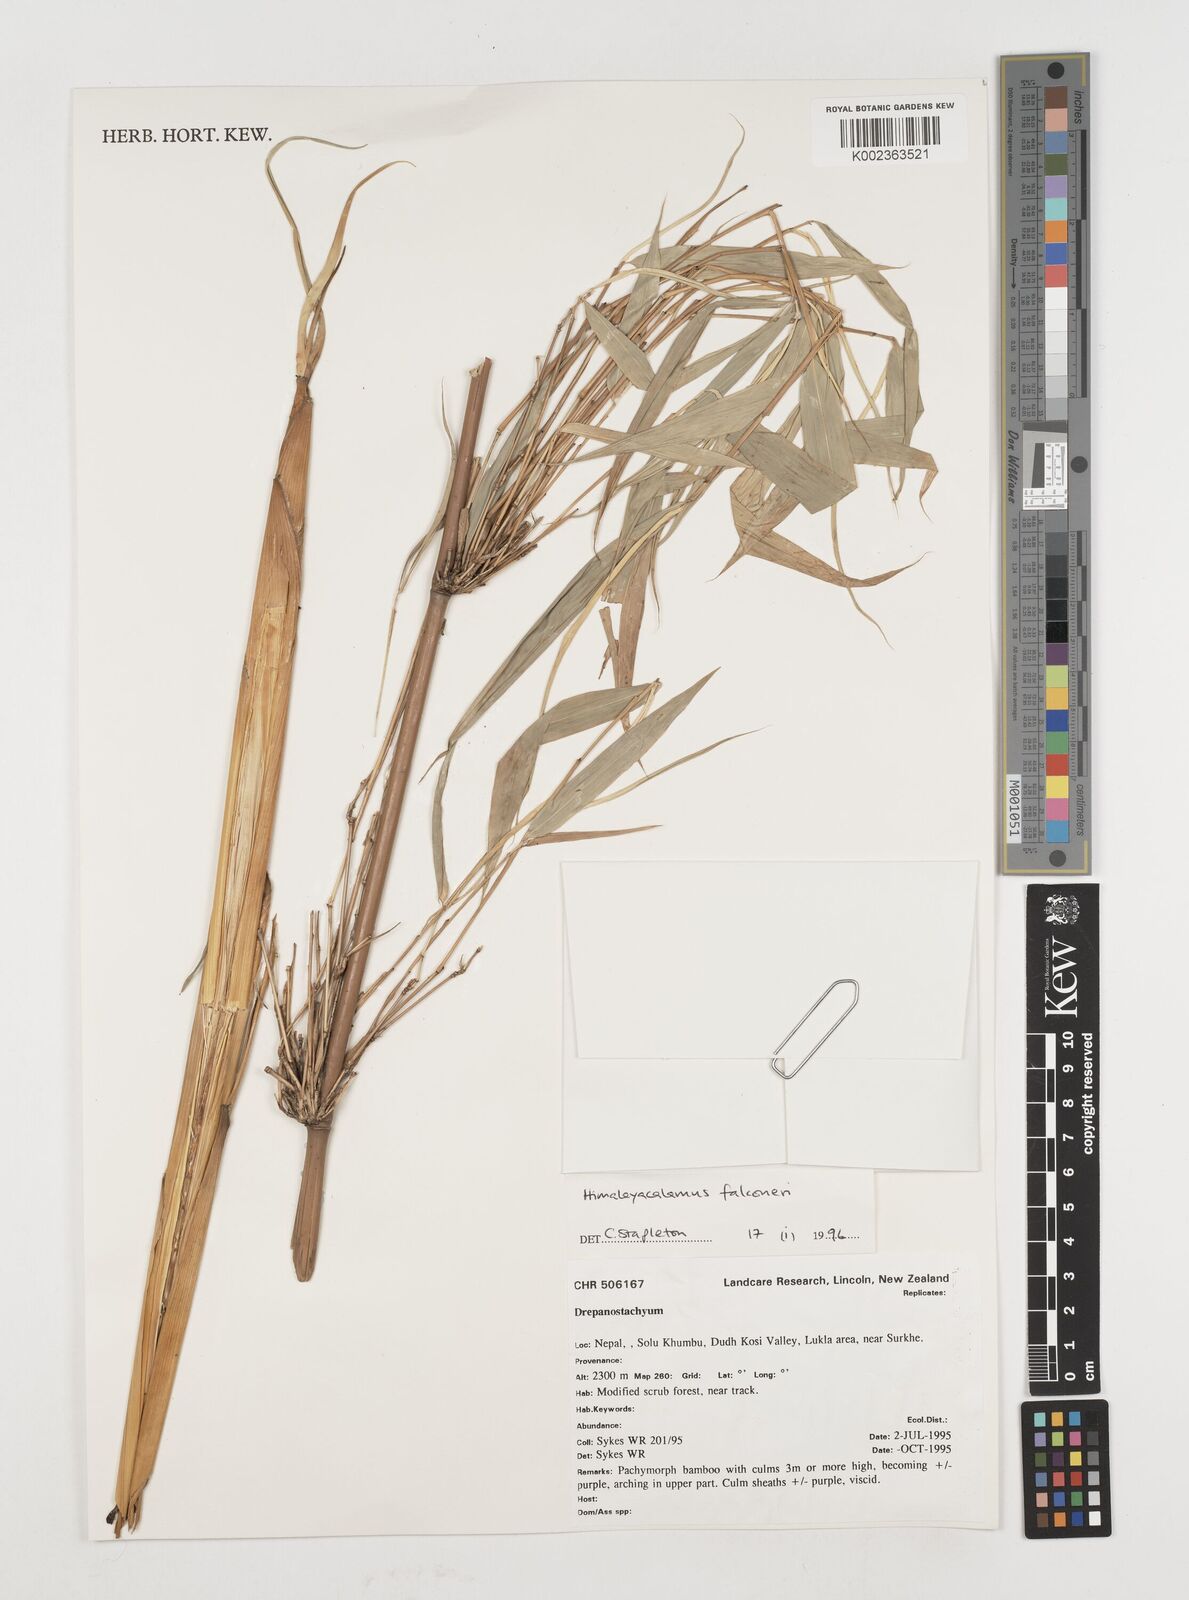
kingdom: Plantae
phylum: Tracheophyta
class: Liliopsida
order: Poales
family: Poaceae
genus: Himalayacalamus
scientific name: Himalayacalamus
